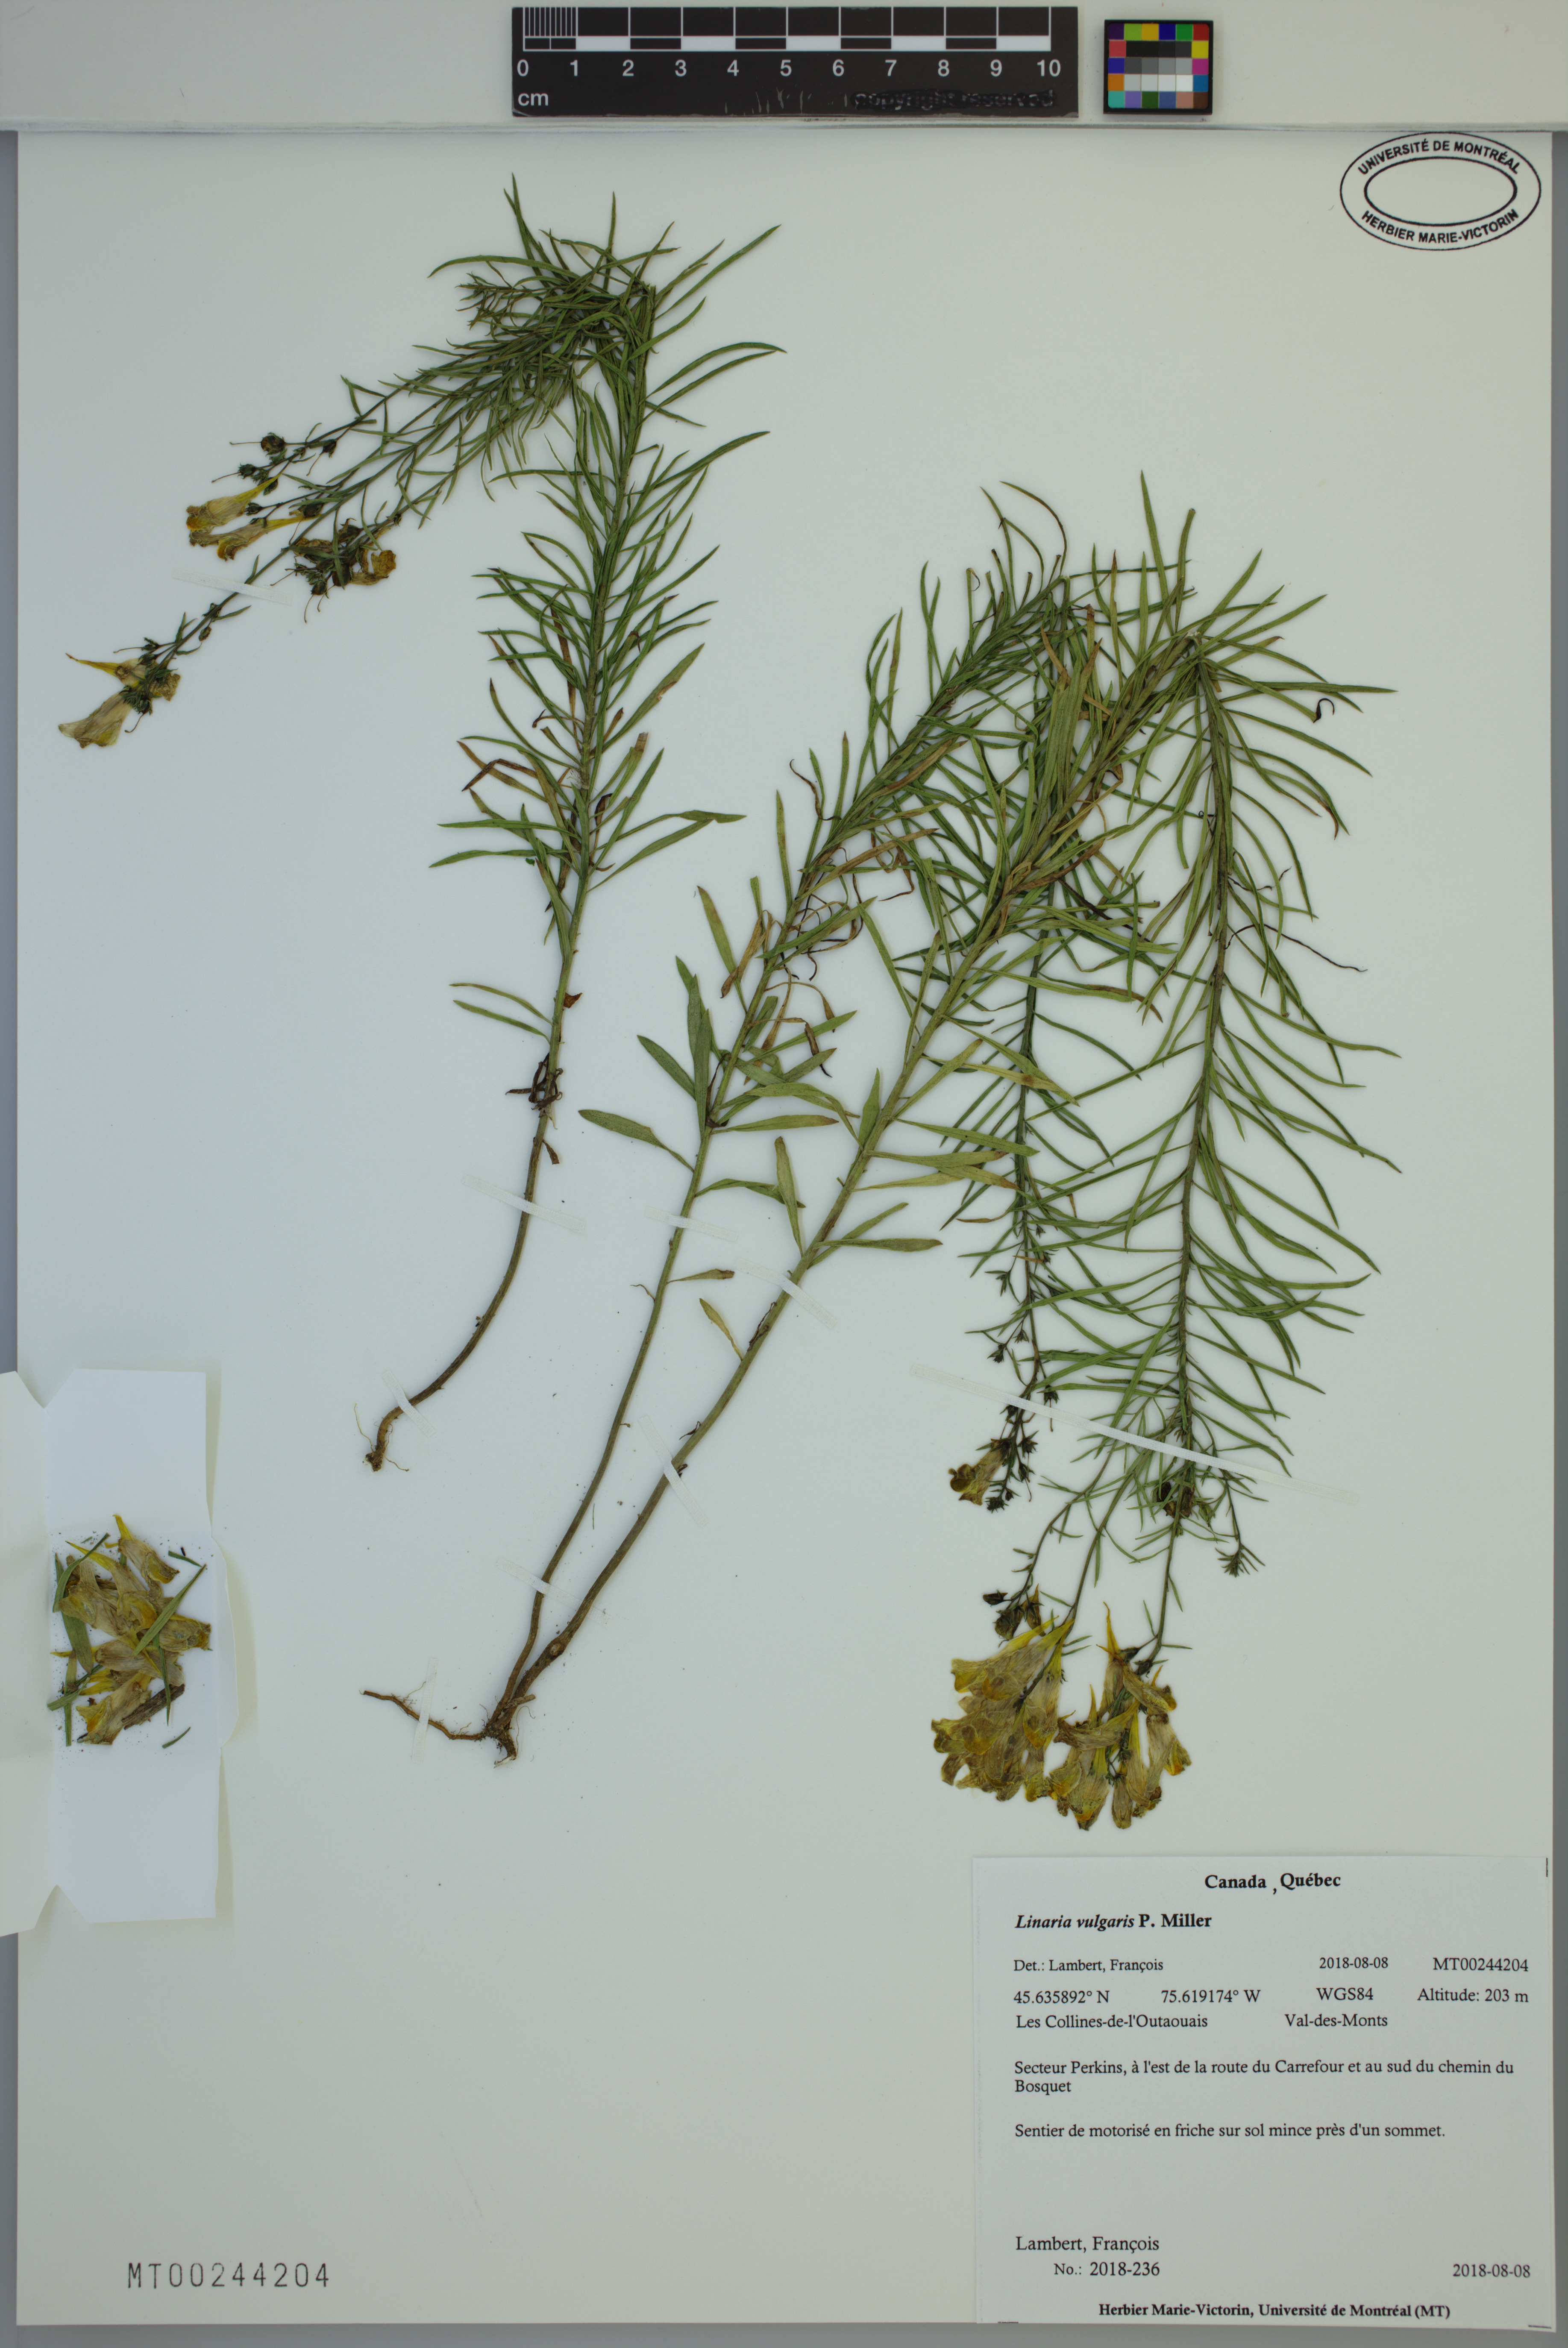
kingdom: Plantae
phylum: Tracheophyta
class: Magnoliopsida
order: Lamiales
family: Plantaginaceae
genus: Linaria
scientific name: Linaria vulgaris
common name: Butter and eggs
